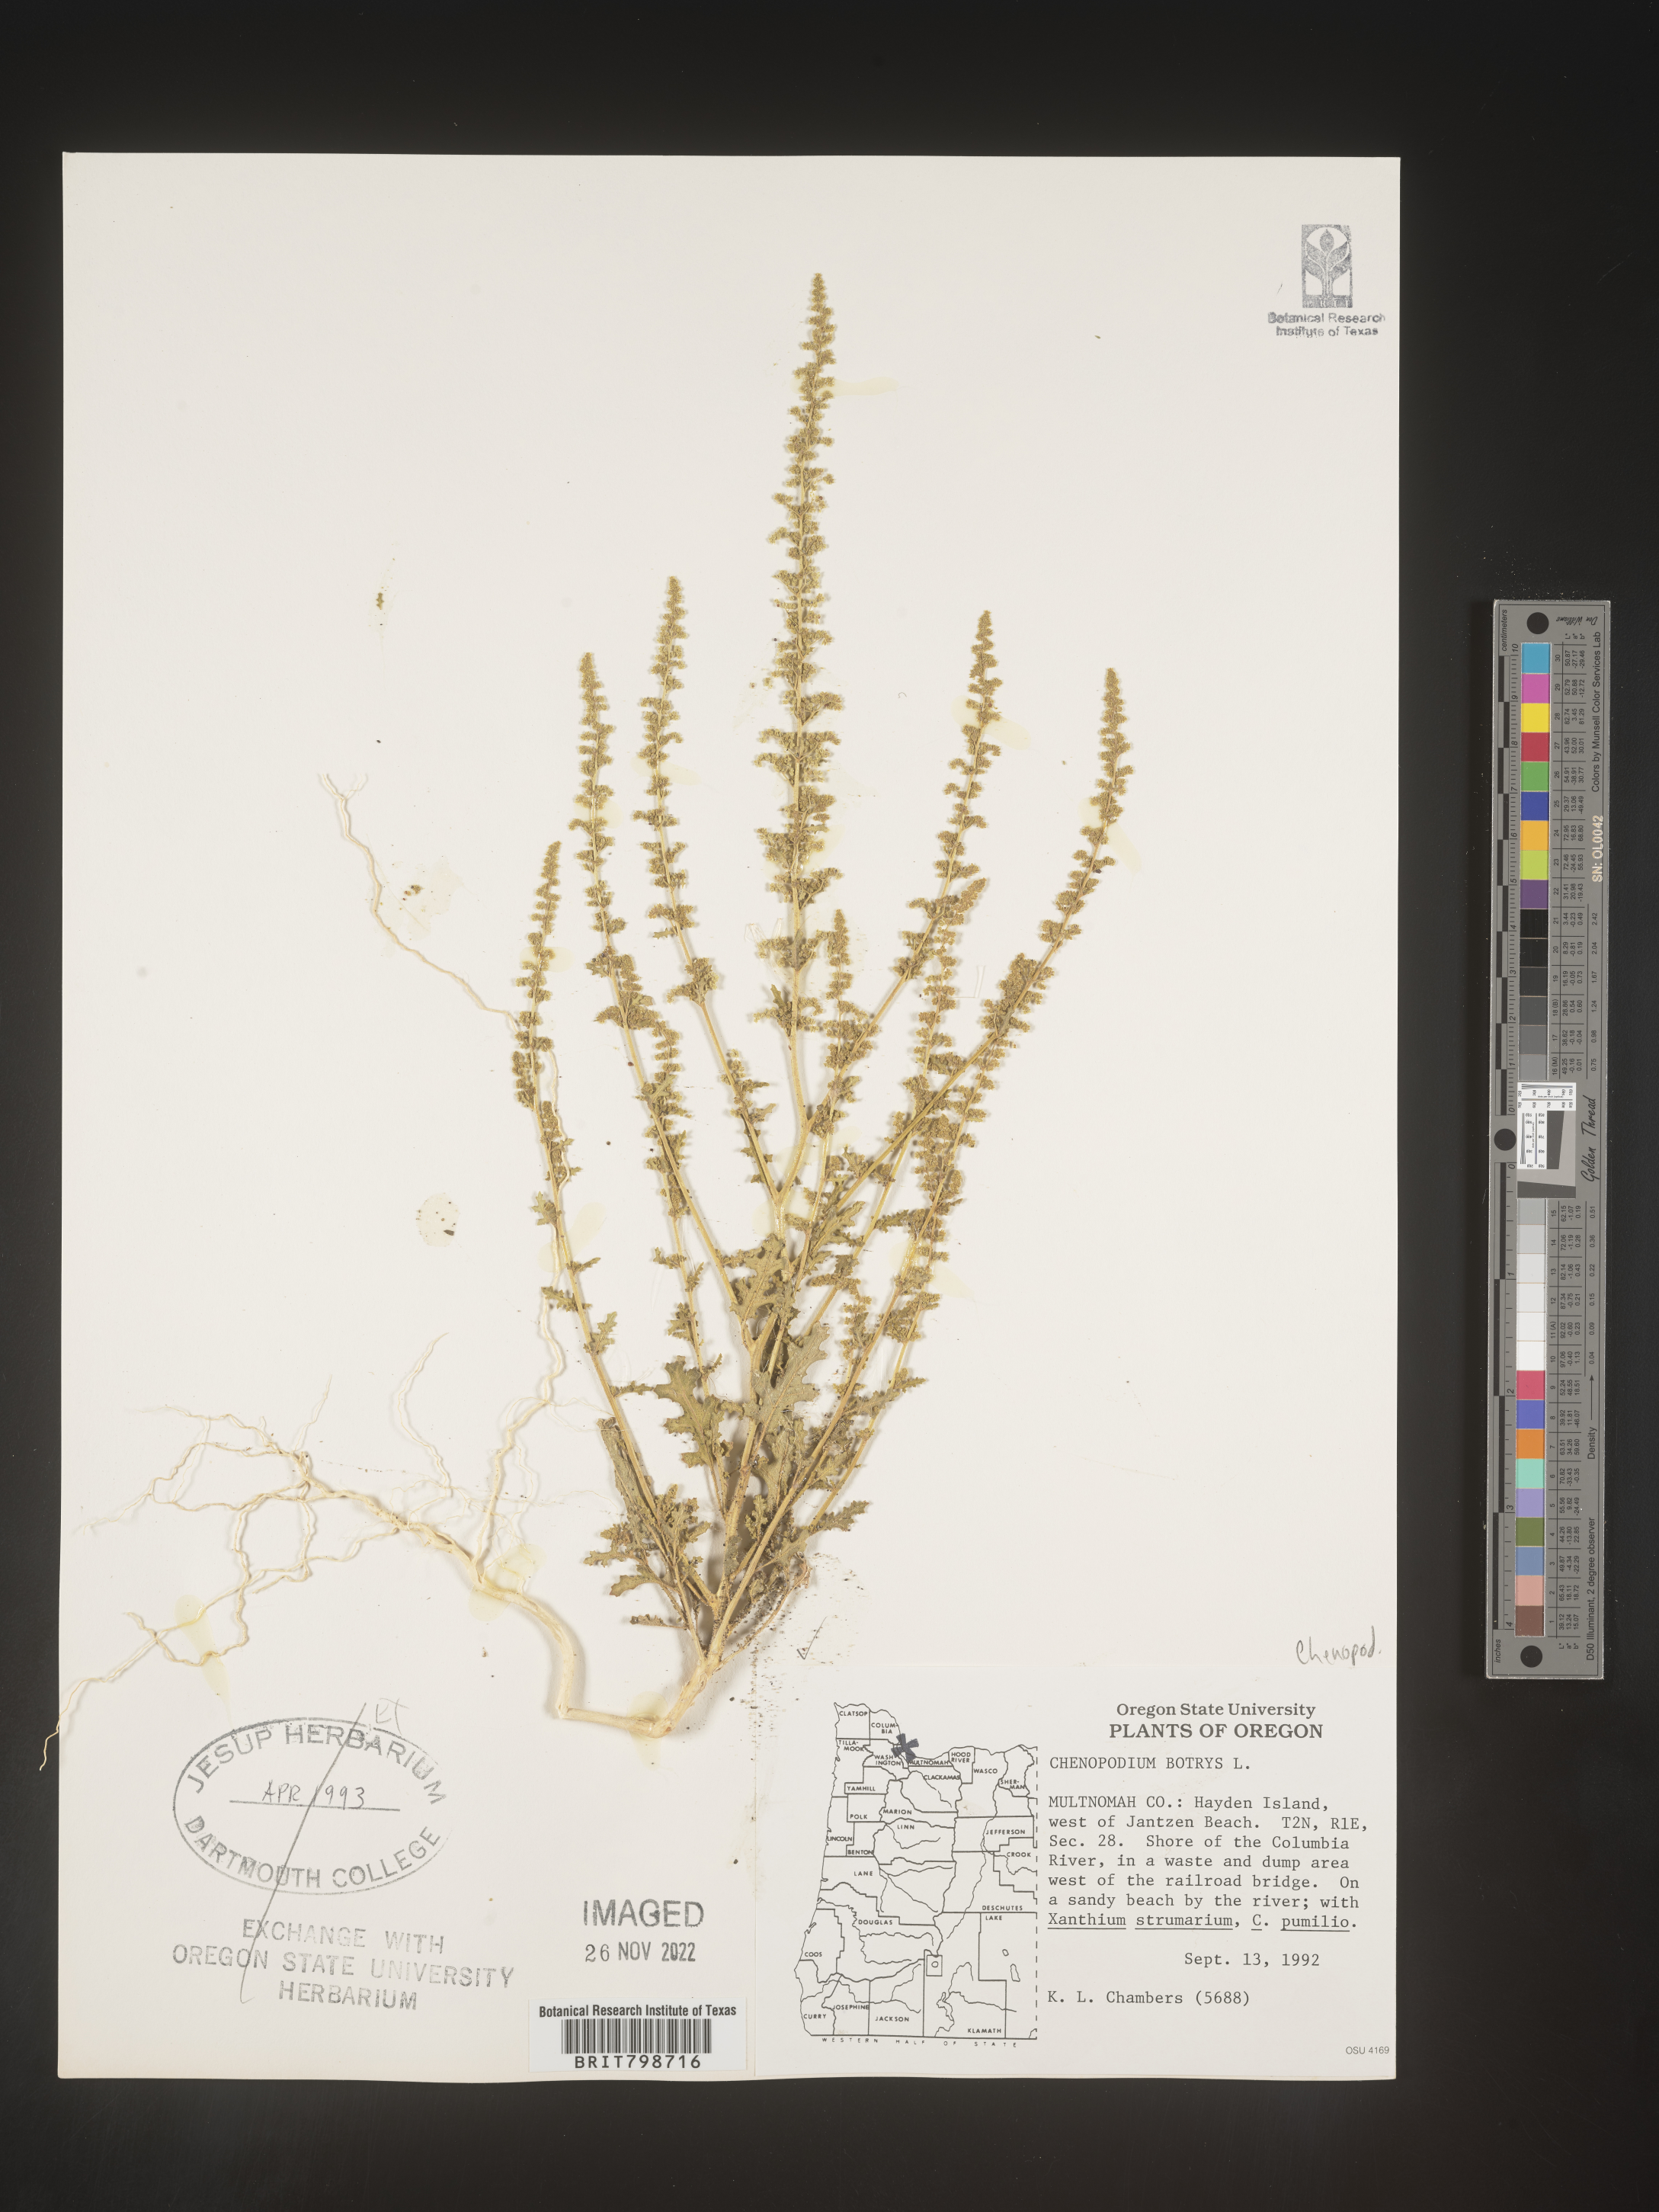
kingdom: Plantae
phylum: Tracheophyta
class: Magnoliopsida
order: Caryophyllales
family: Amaranthaceae
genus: Dysphania
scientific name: Dysphania botrys
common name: Feather-geranium
